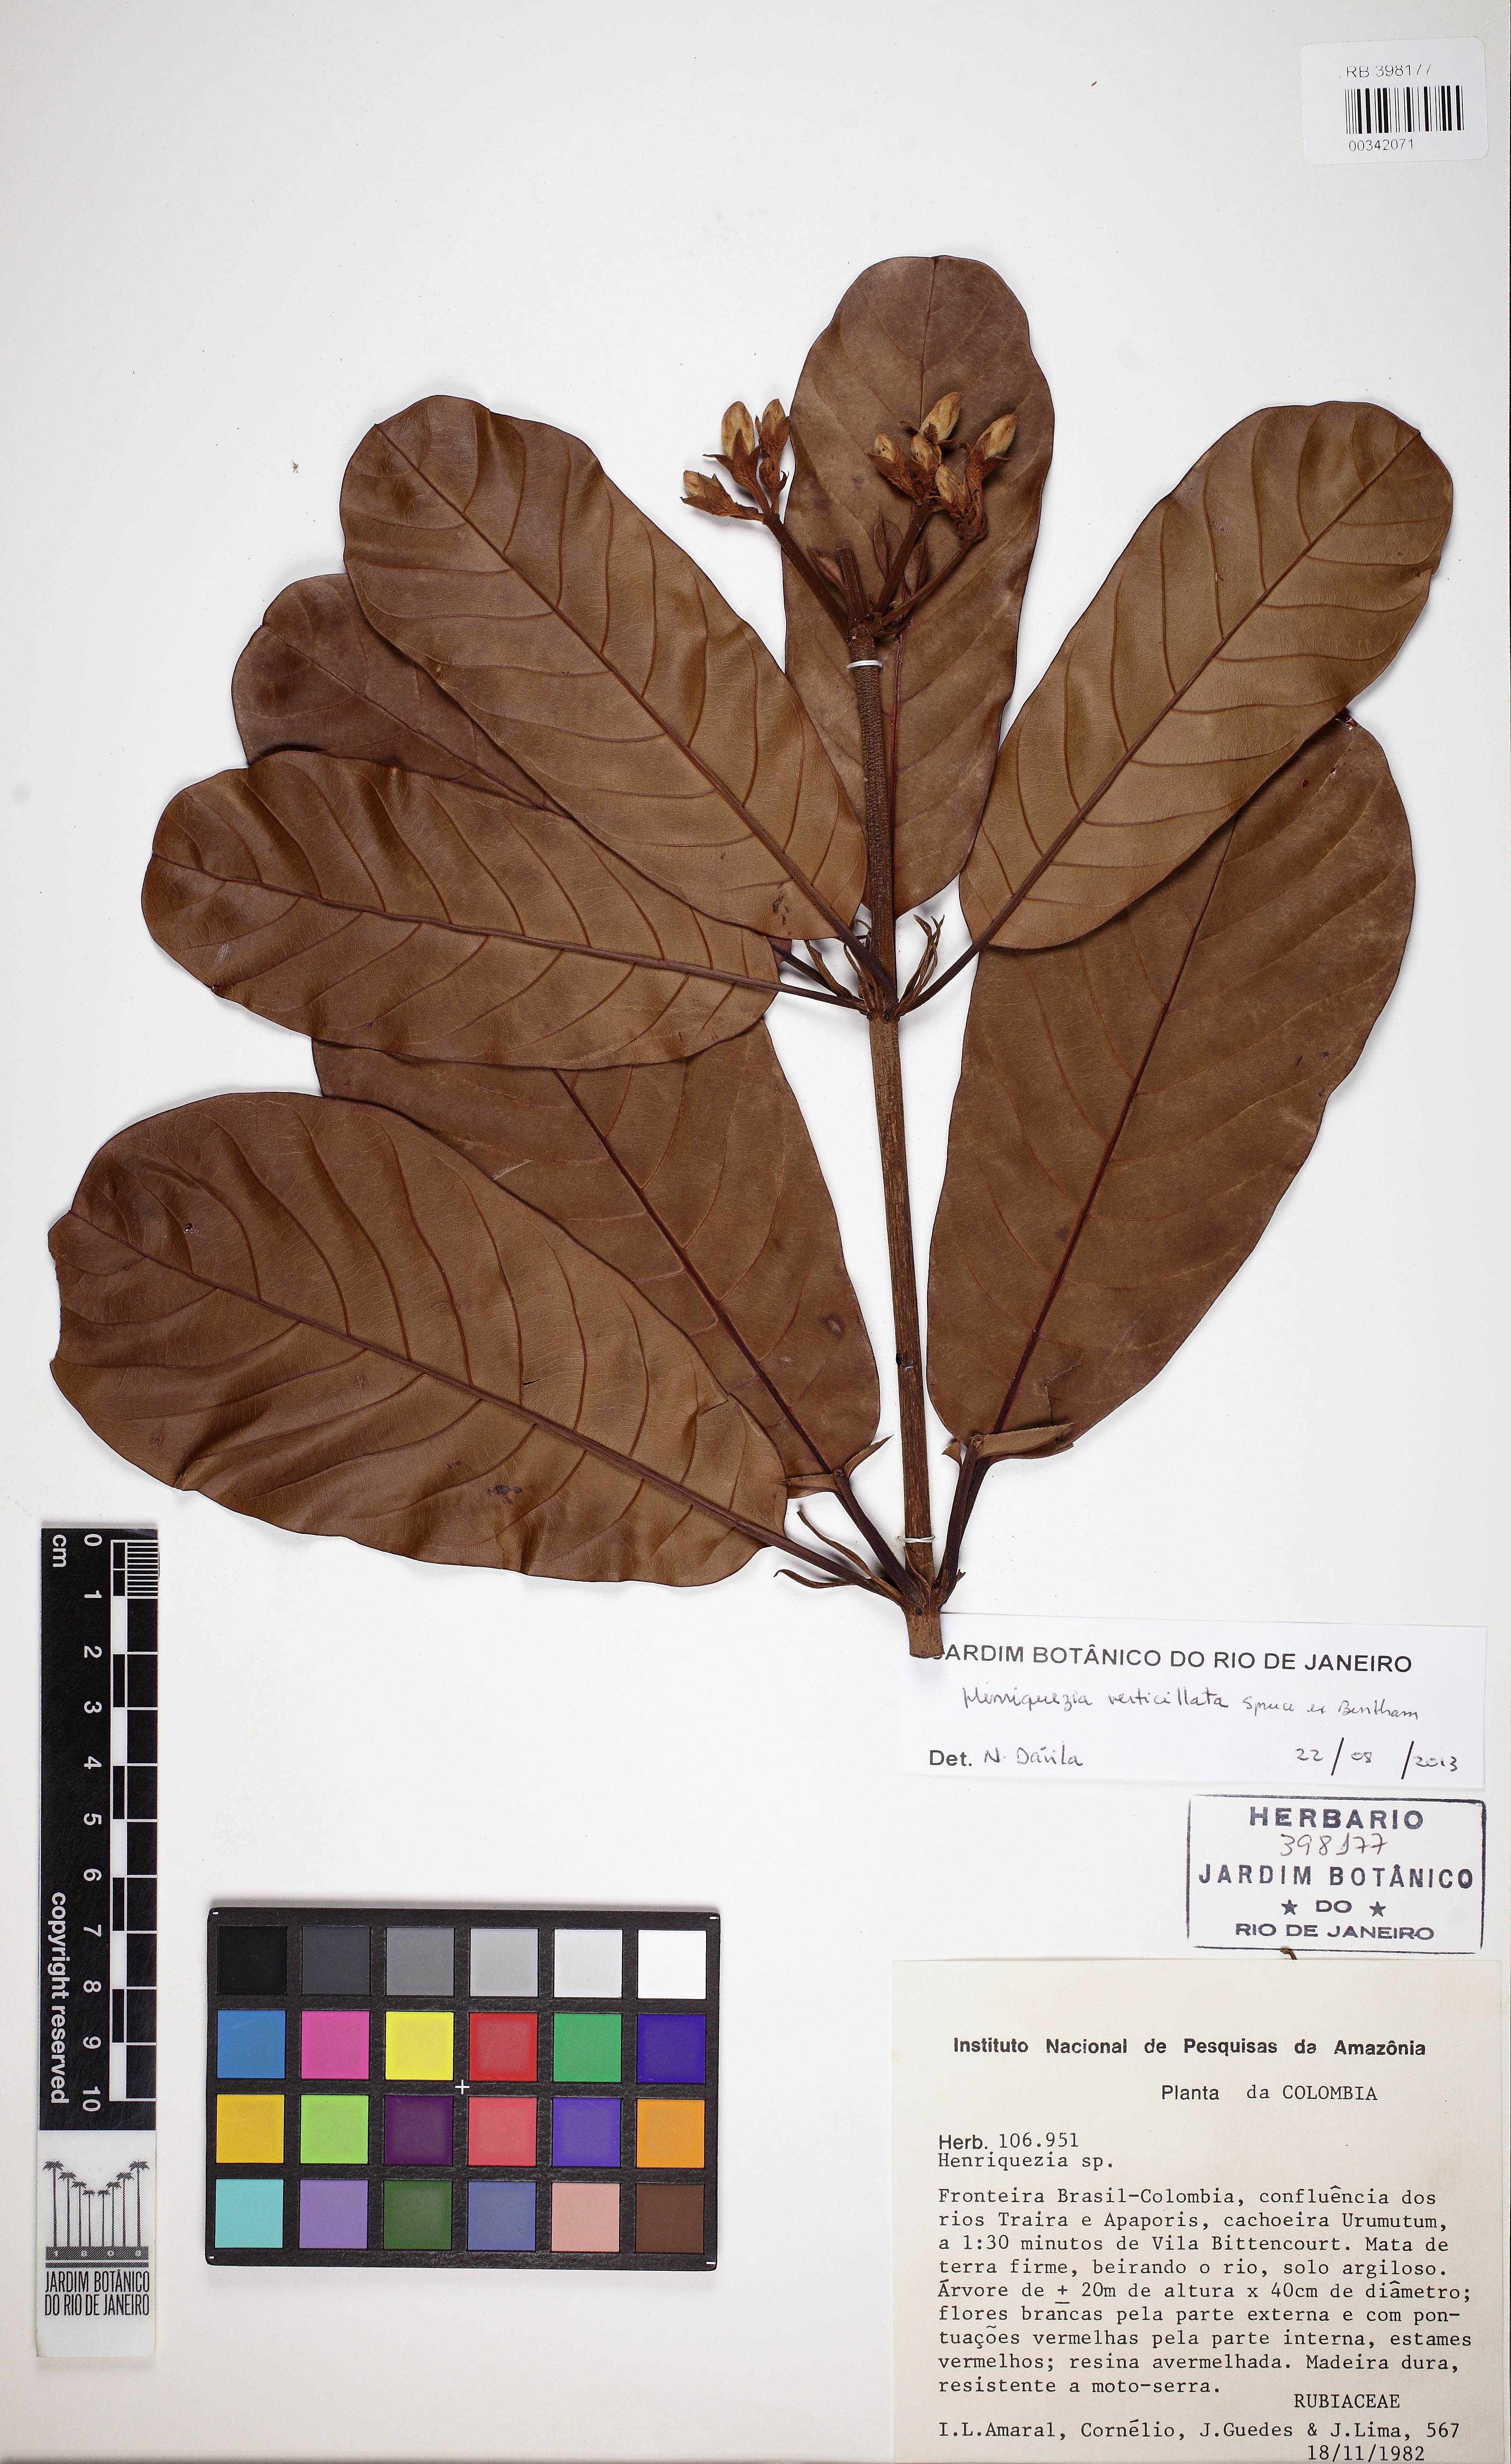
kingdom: Plantae
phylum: Tracheophyta
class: Magnoliopsida
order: Gentianales
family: Rubiaceae
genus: Henriquezia
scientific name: Henriquezia verticillata
